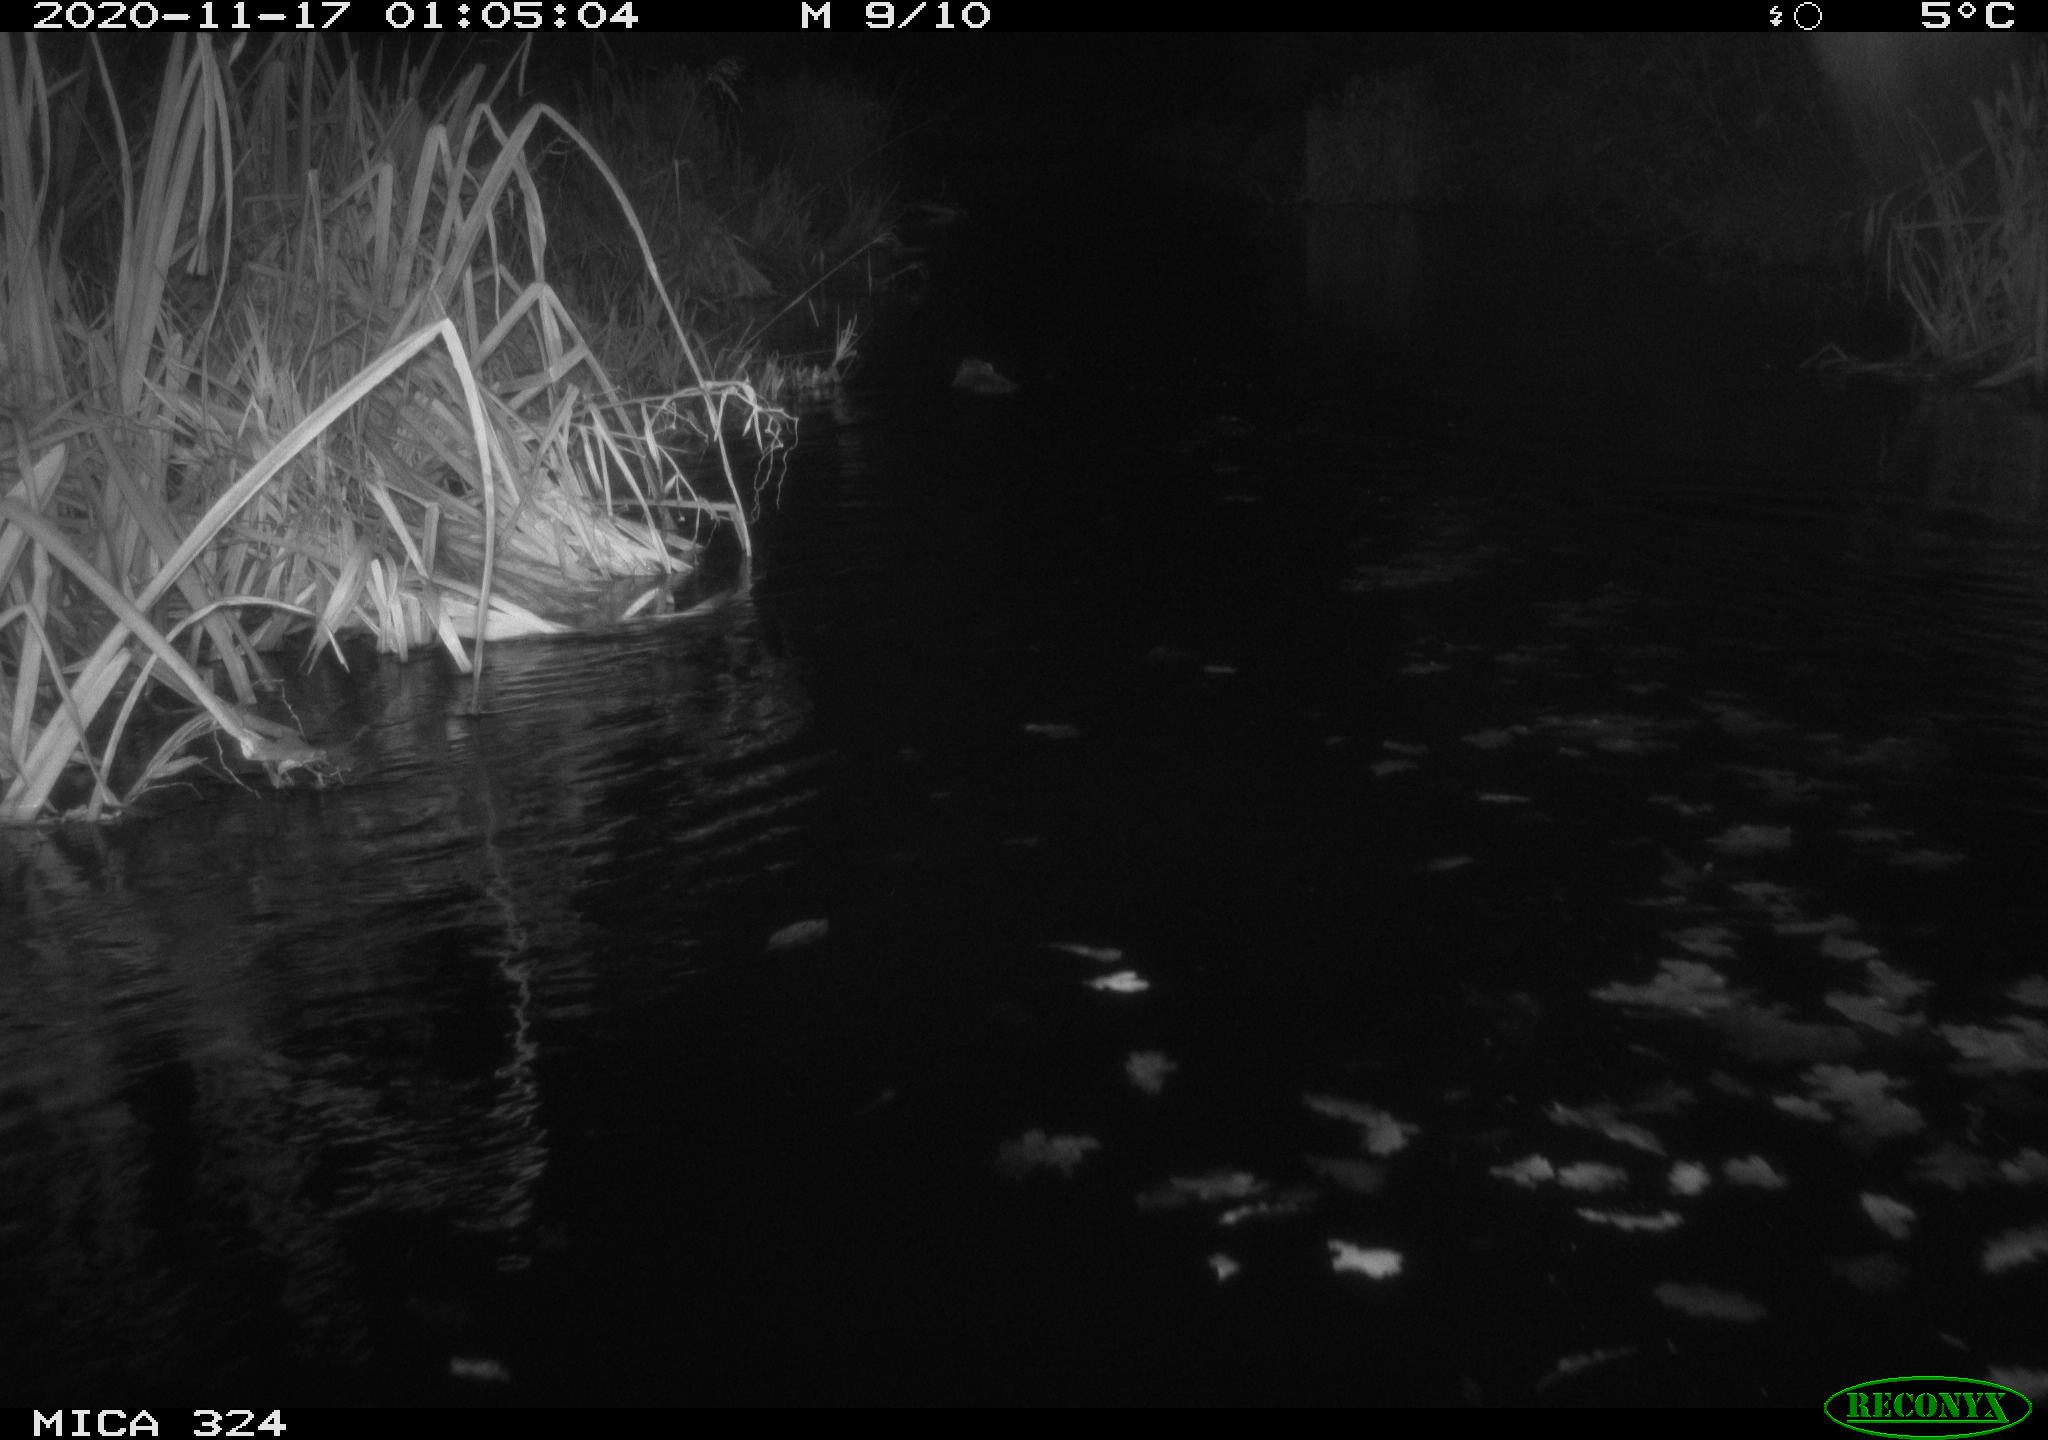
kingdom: Animalia
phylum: Chordata
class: Mammalia
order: Rodentia
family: Myocastoridae
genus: Myocastor
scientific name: Myocastor coypus
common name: Coypu
